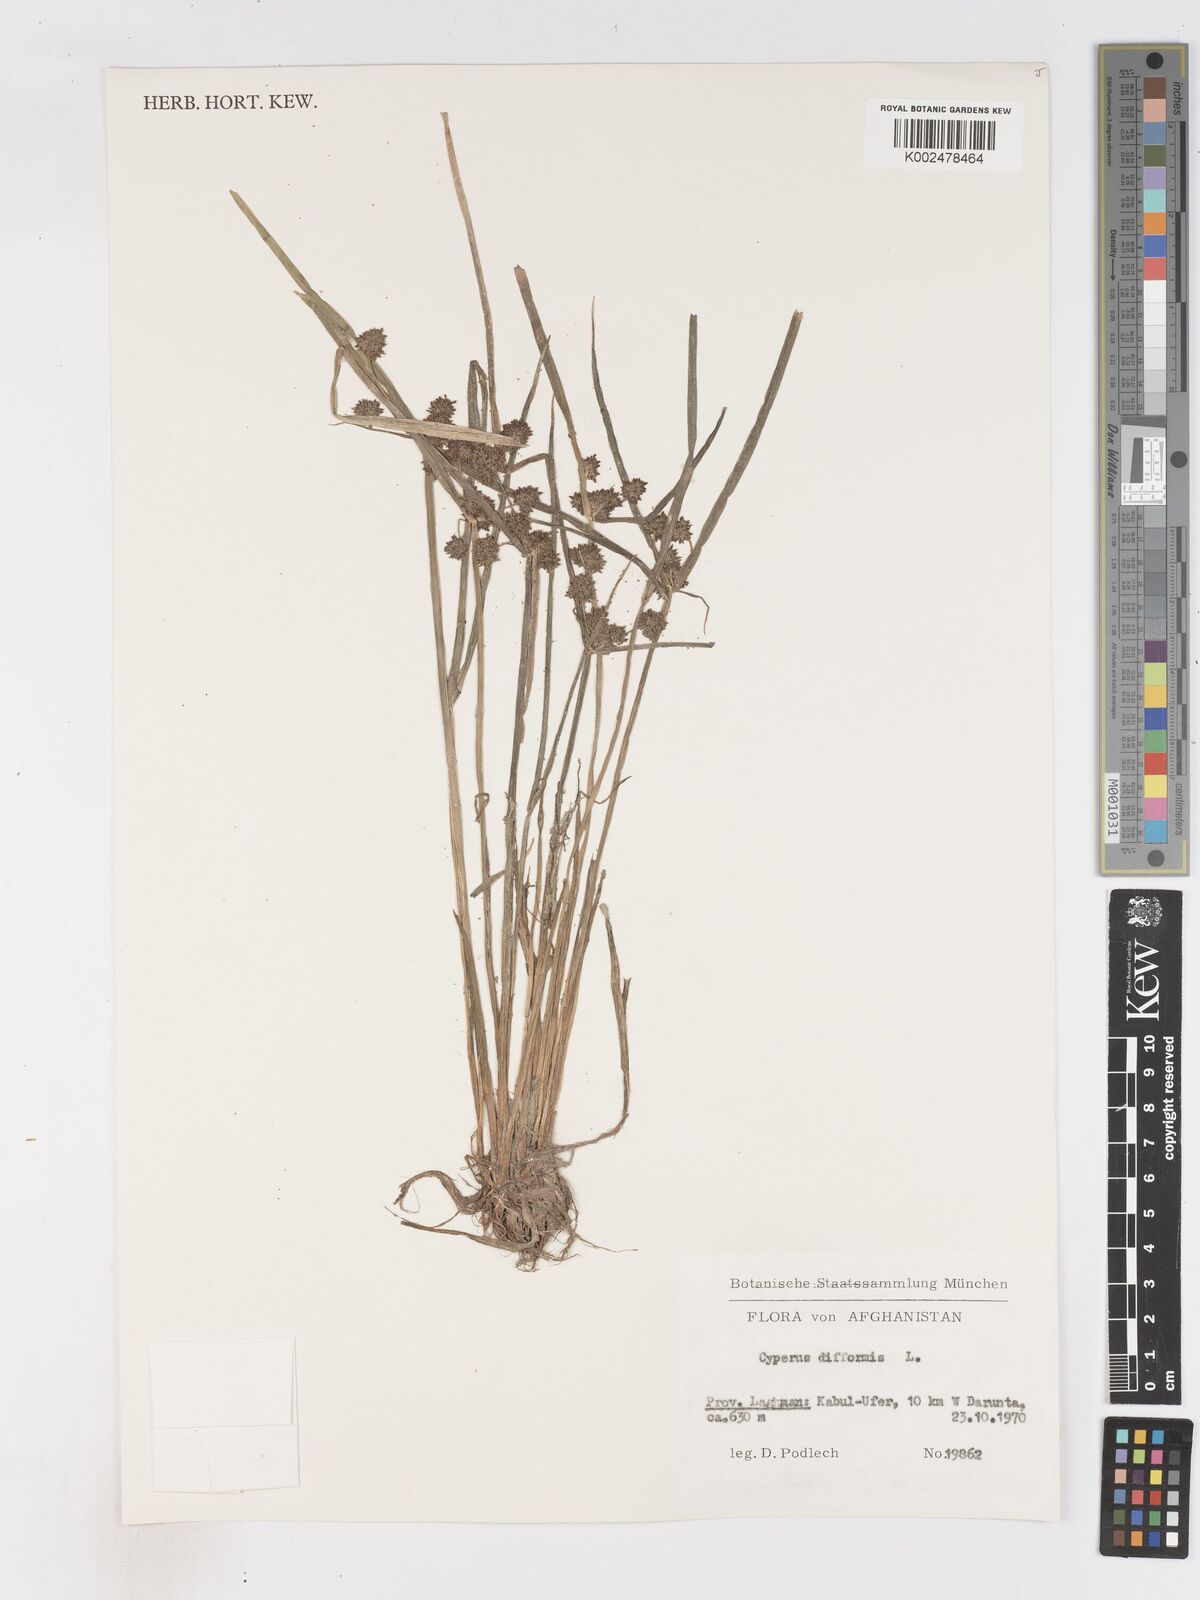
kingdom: Plantae
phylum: Tracheophyta
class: Liliopsida
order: Poales
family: Cyperaceae
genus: Cyperus
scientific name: Cyperus difformis
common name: Variable flatsedge
